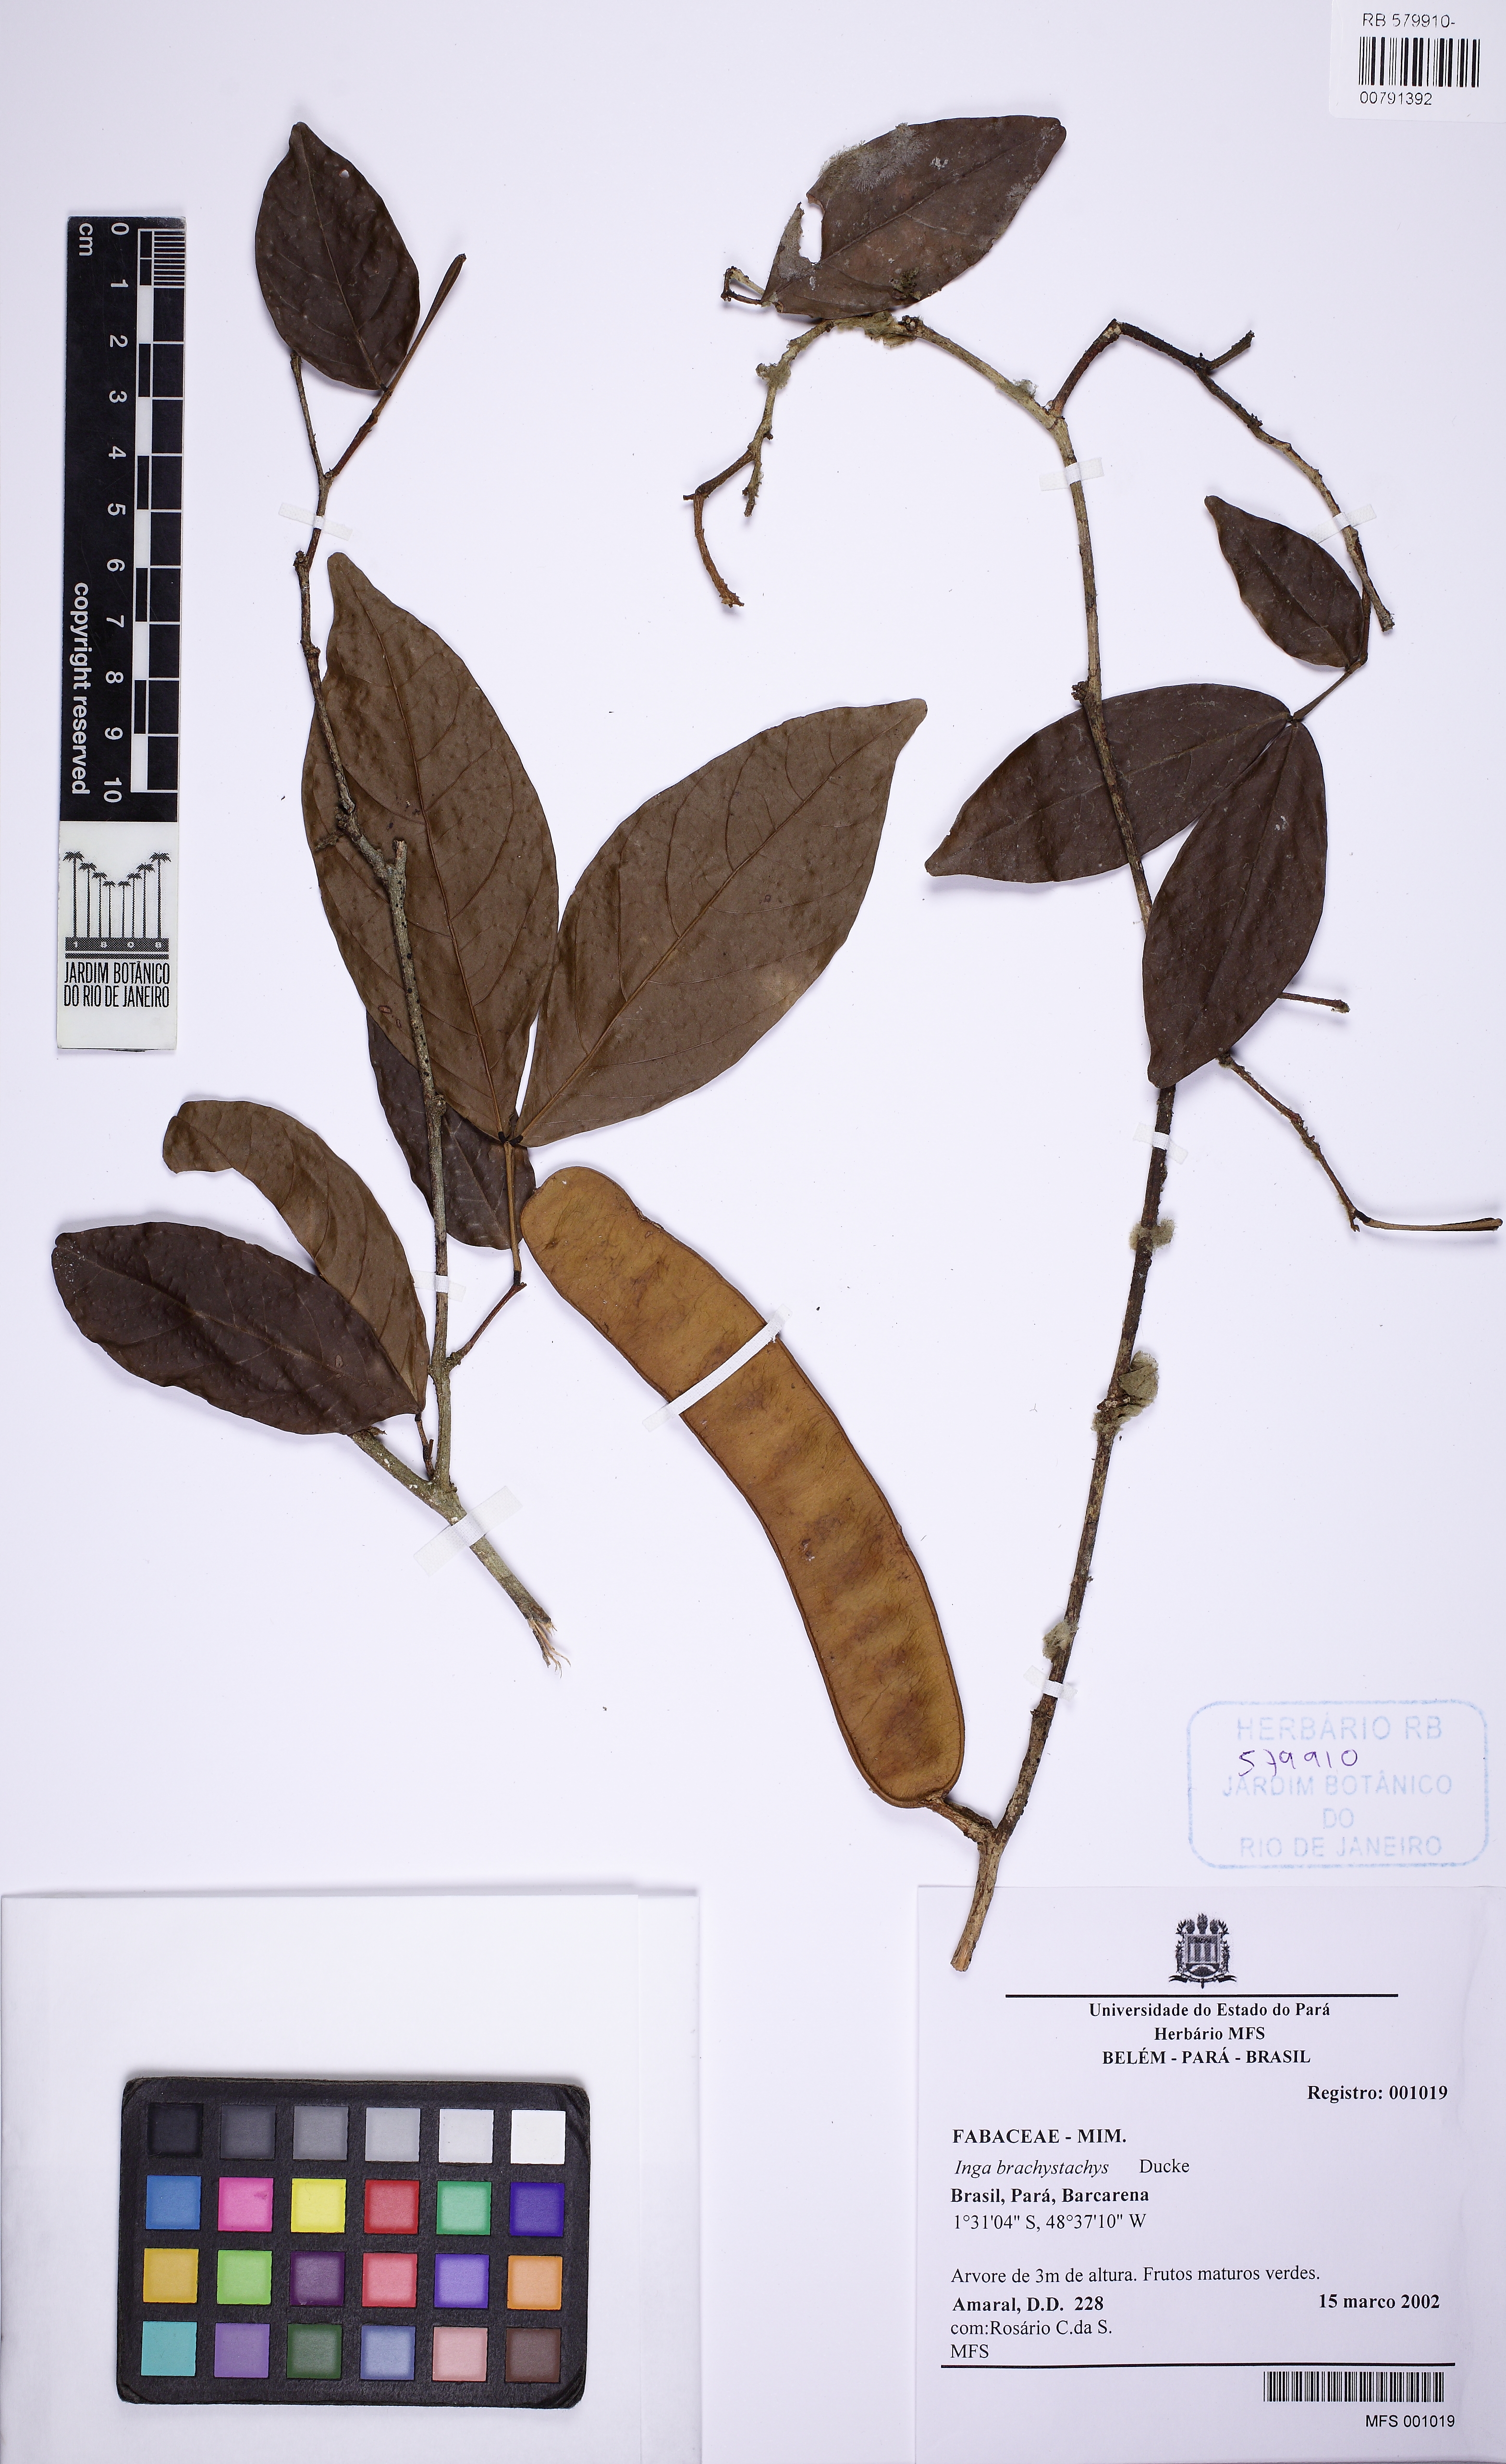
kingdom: Plantae
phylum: Tracheophyta
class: Magnoliopsida
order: Fabales
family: Fabaceae
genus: Jupunba
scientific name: Jupunba brachystachya
